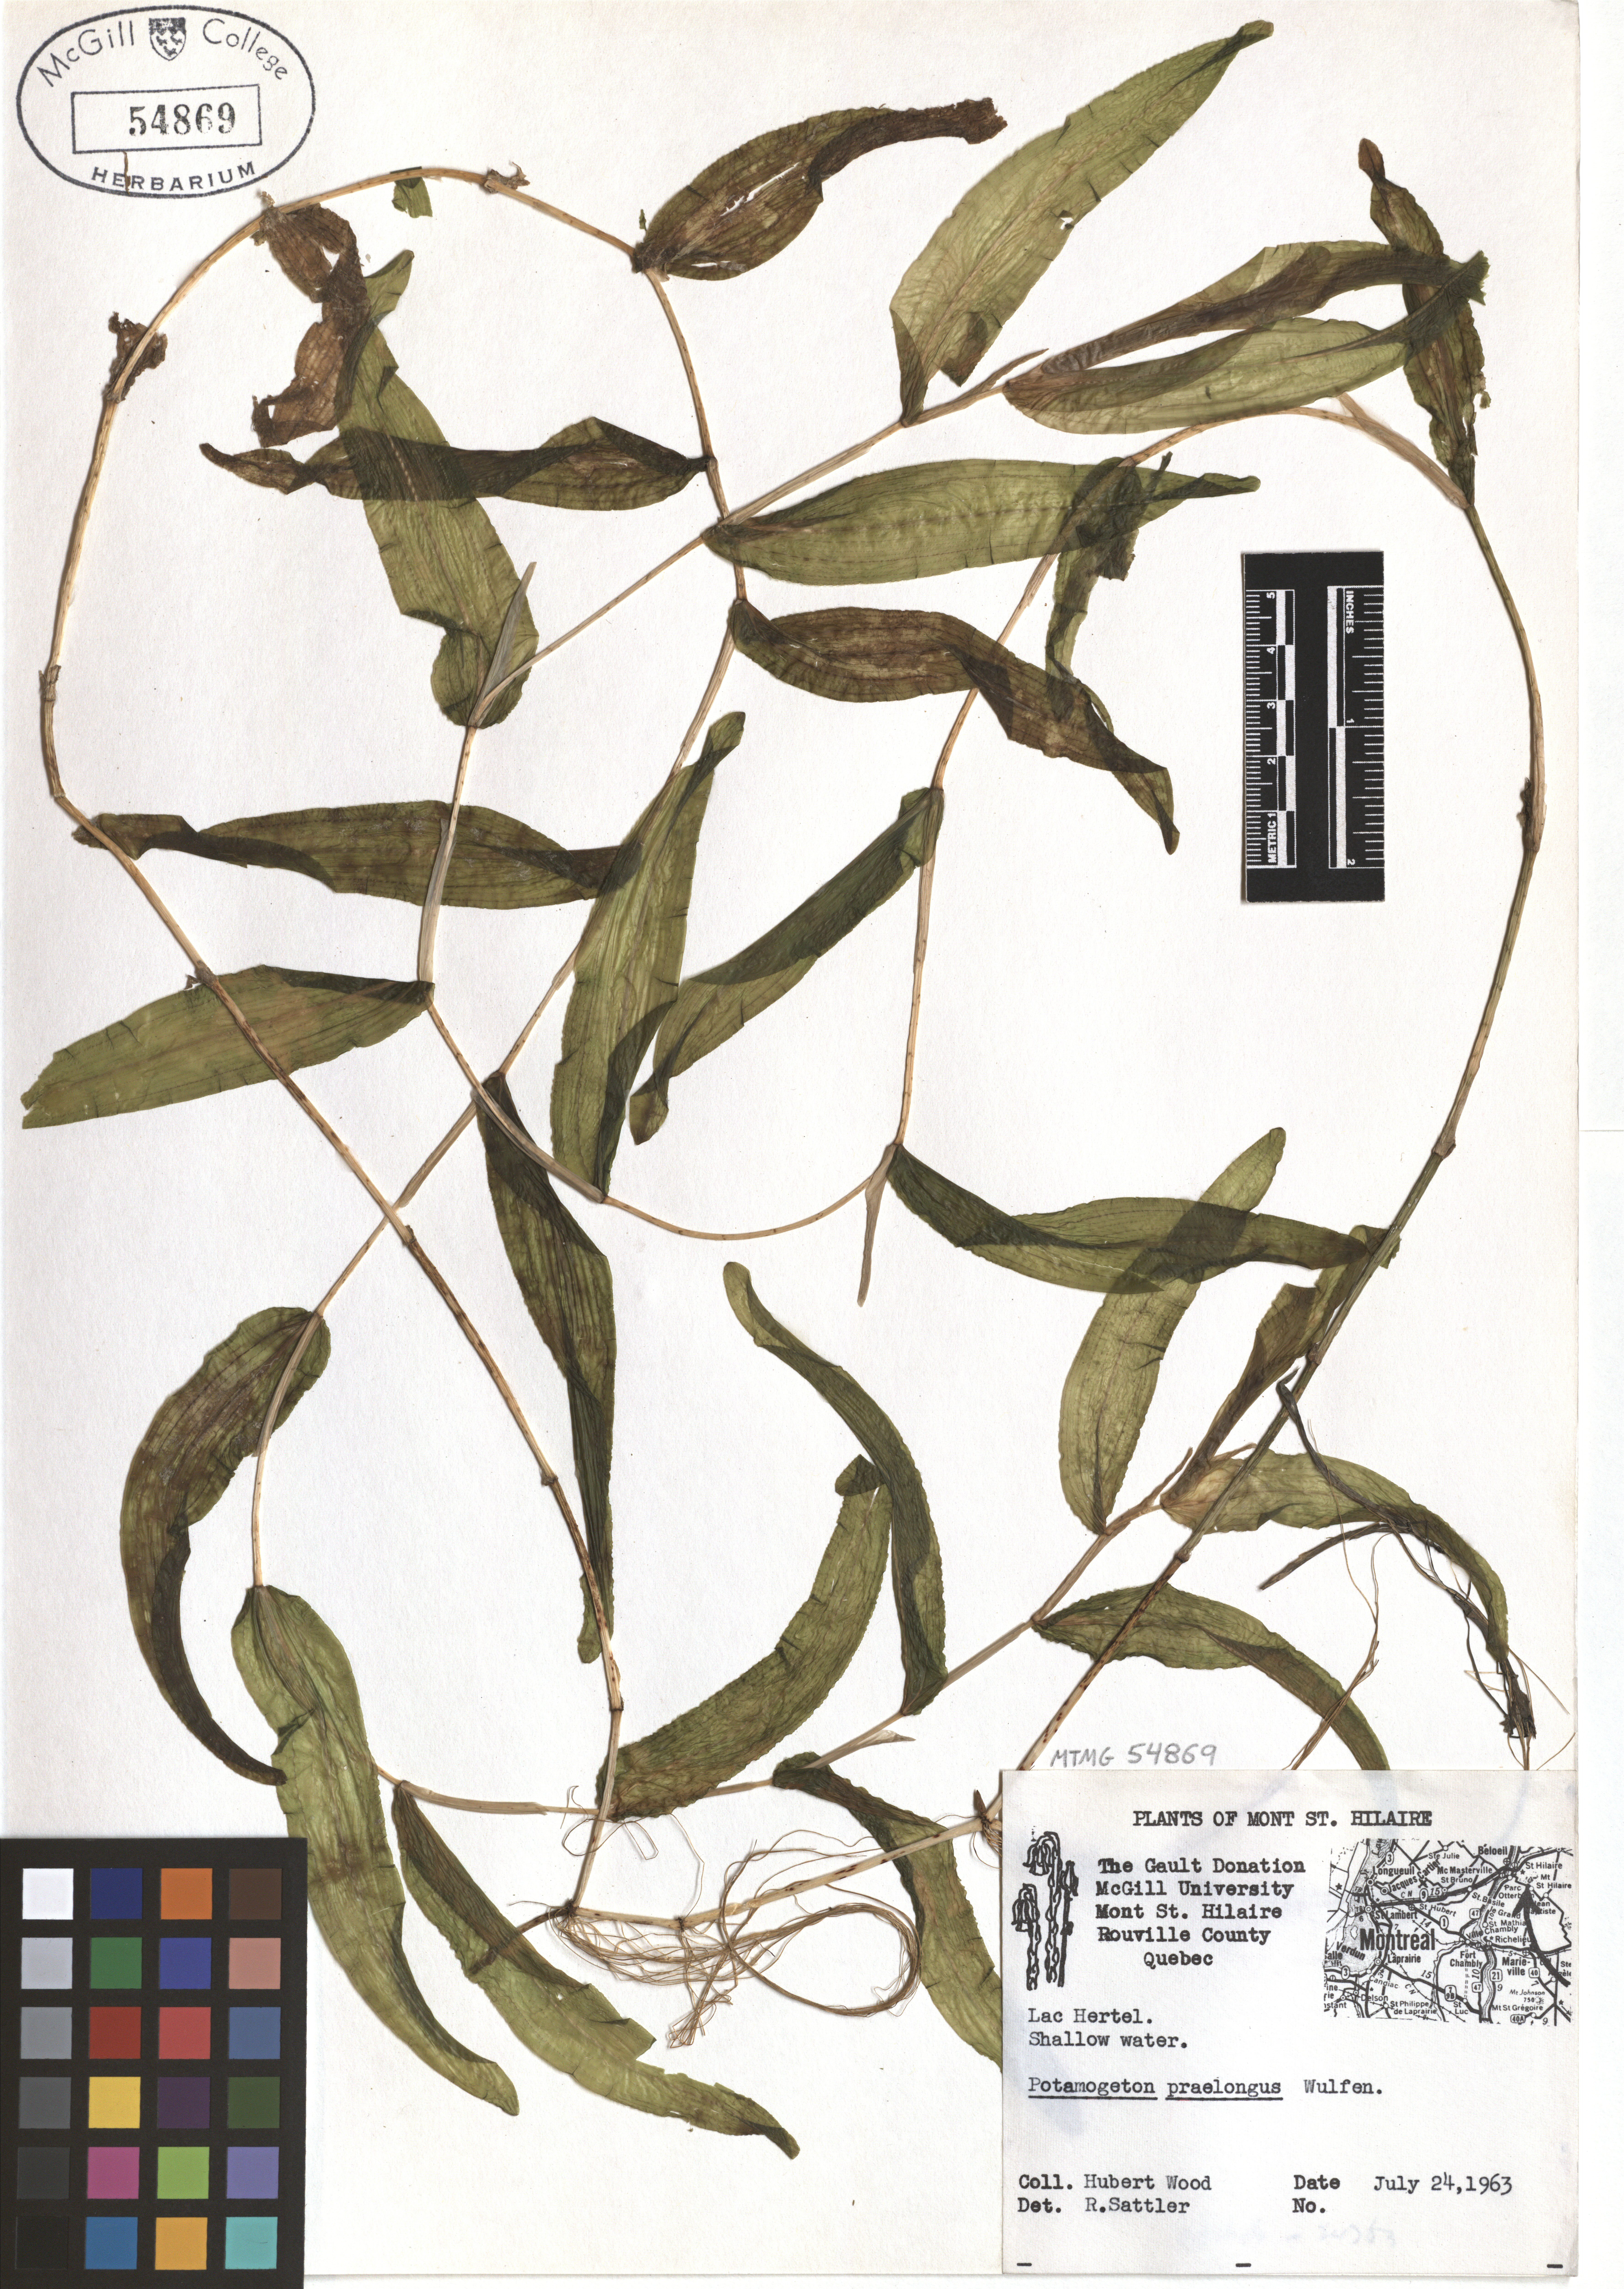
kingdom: Plantae
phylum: Tracheophyta
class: Liliopsida
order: Alismatales
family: Potamogetonaceae
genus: Potamogeton
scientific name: Potamogeton praelongus
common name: Long-stalked pondweed
